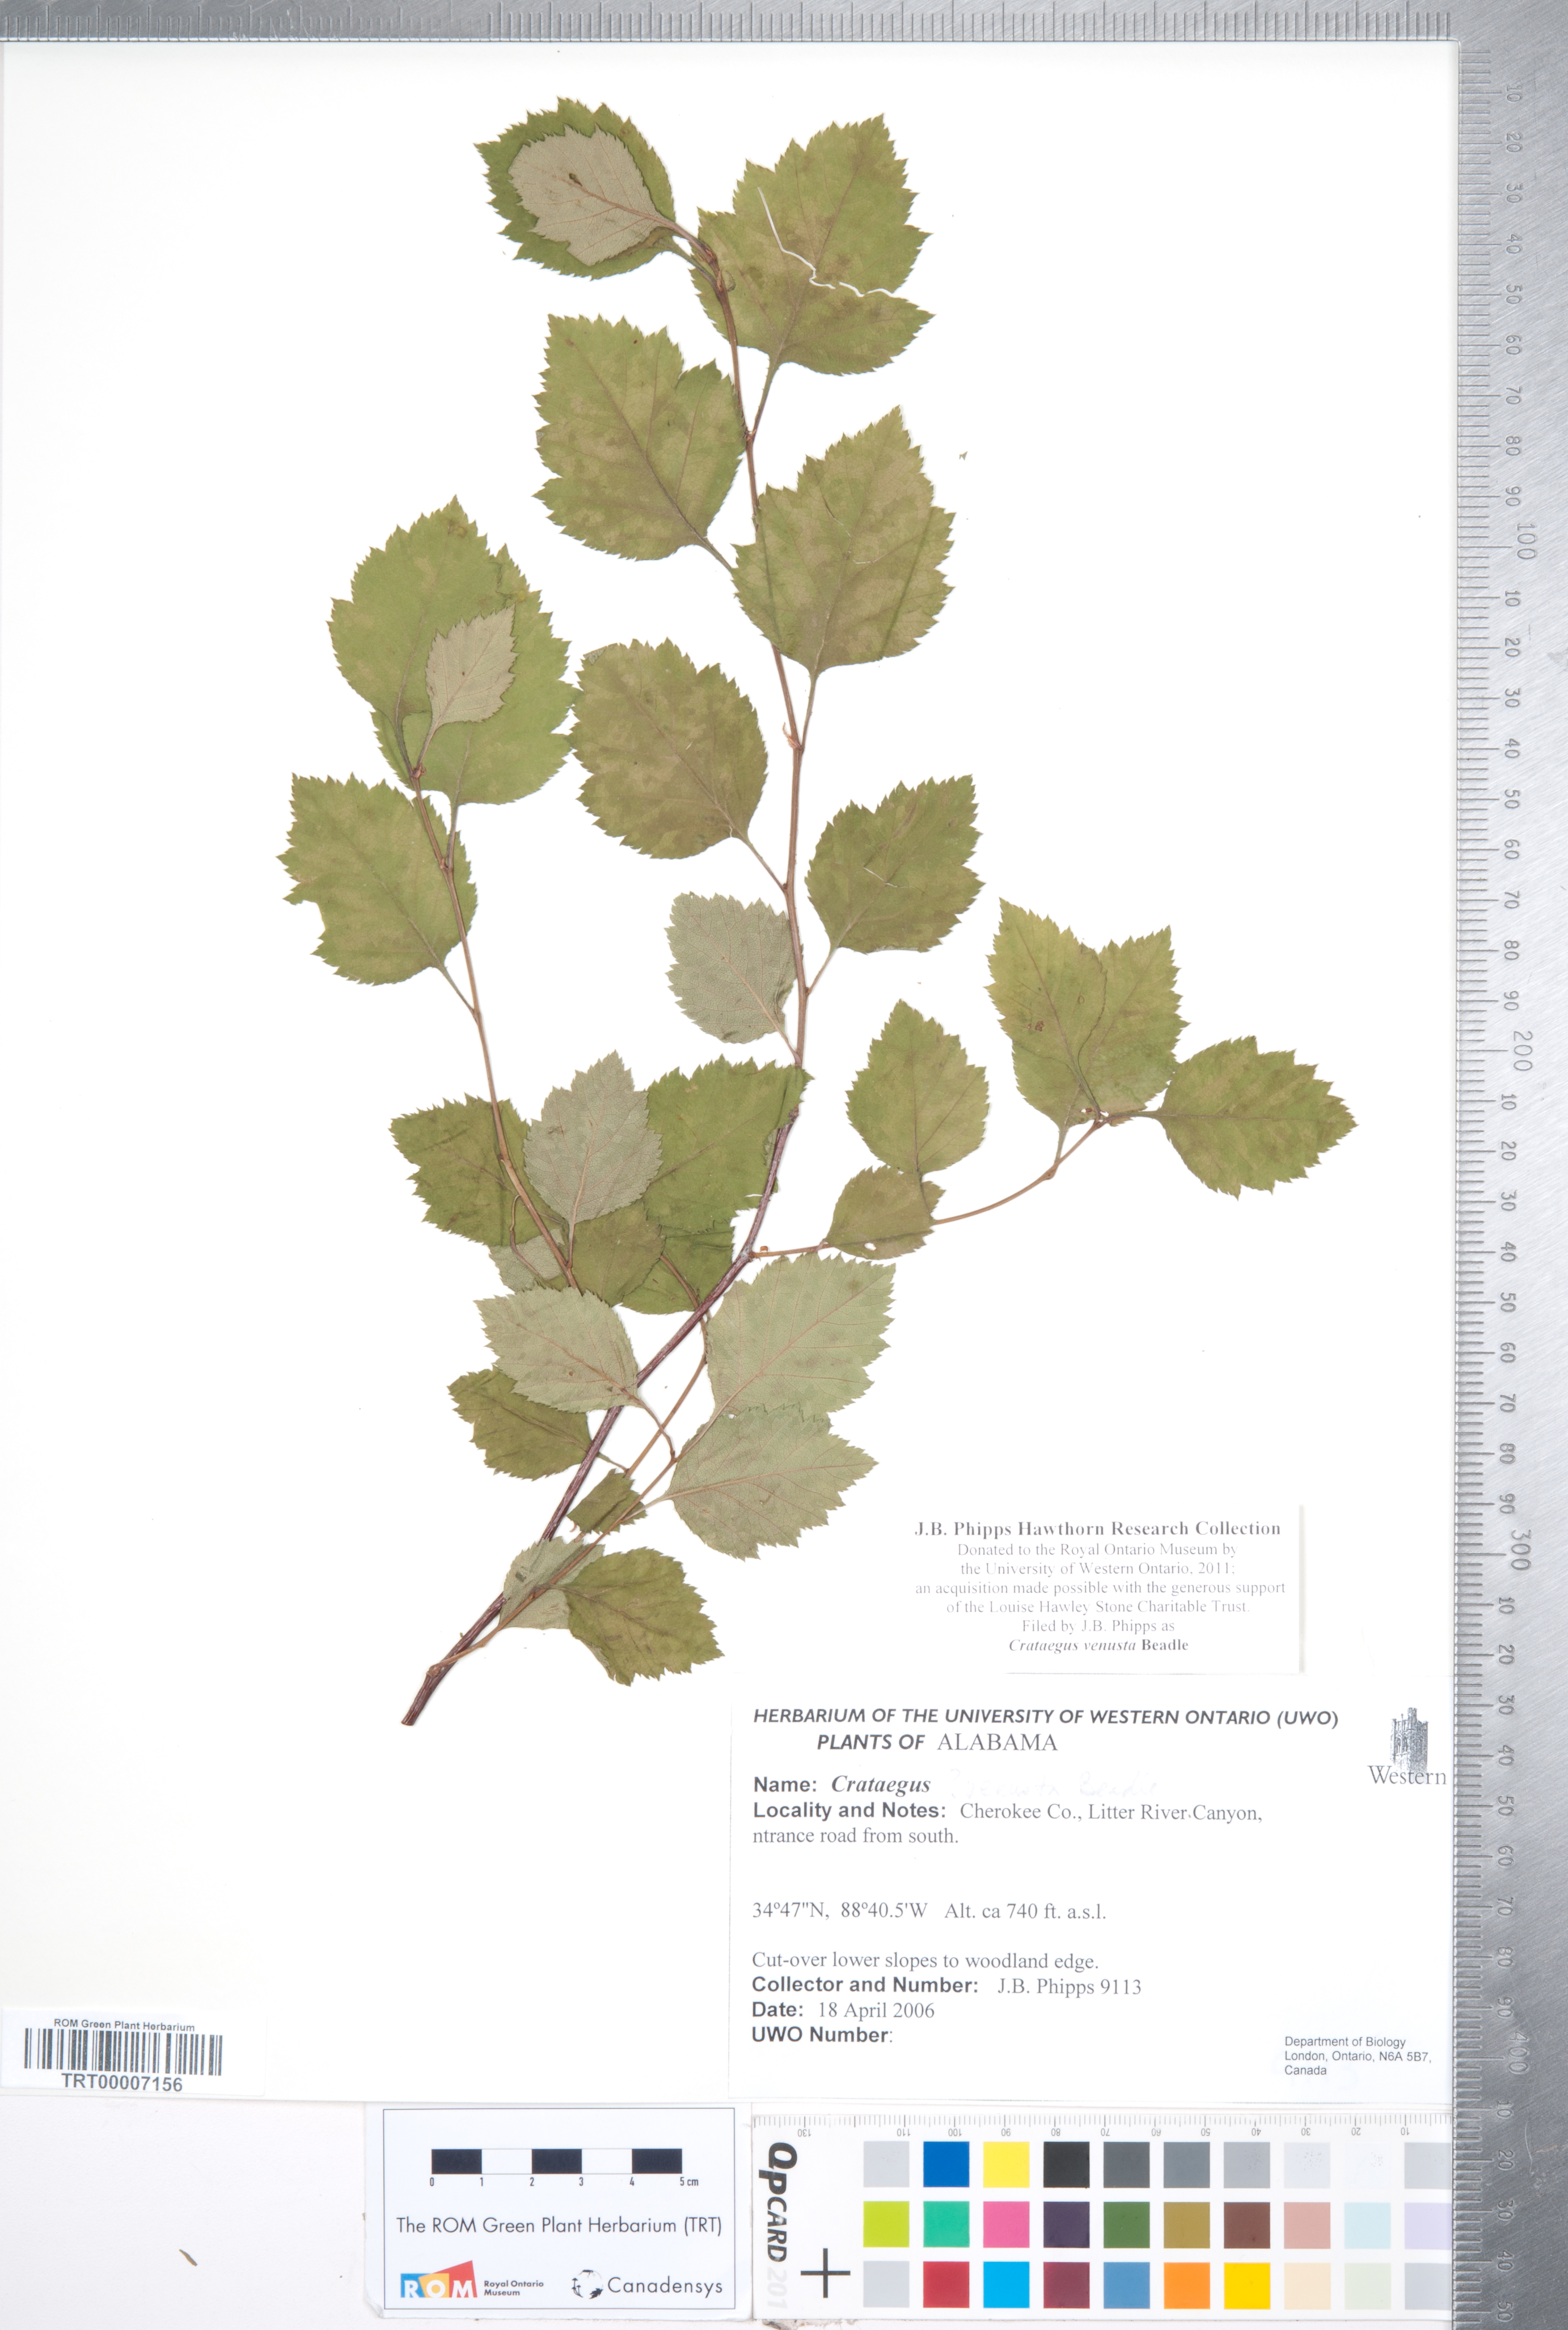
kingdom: Plantae
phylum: Tracheophyta
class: Magnoliopsida
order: Rosales
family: Rosaceae
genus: Crataegus
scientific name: Crataegus venusta
